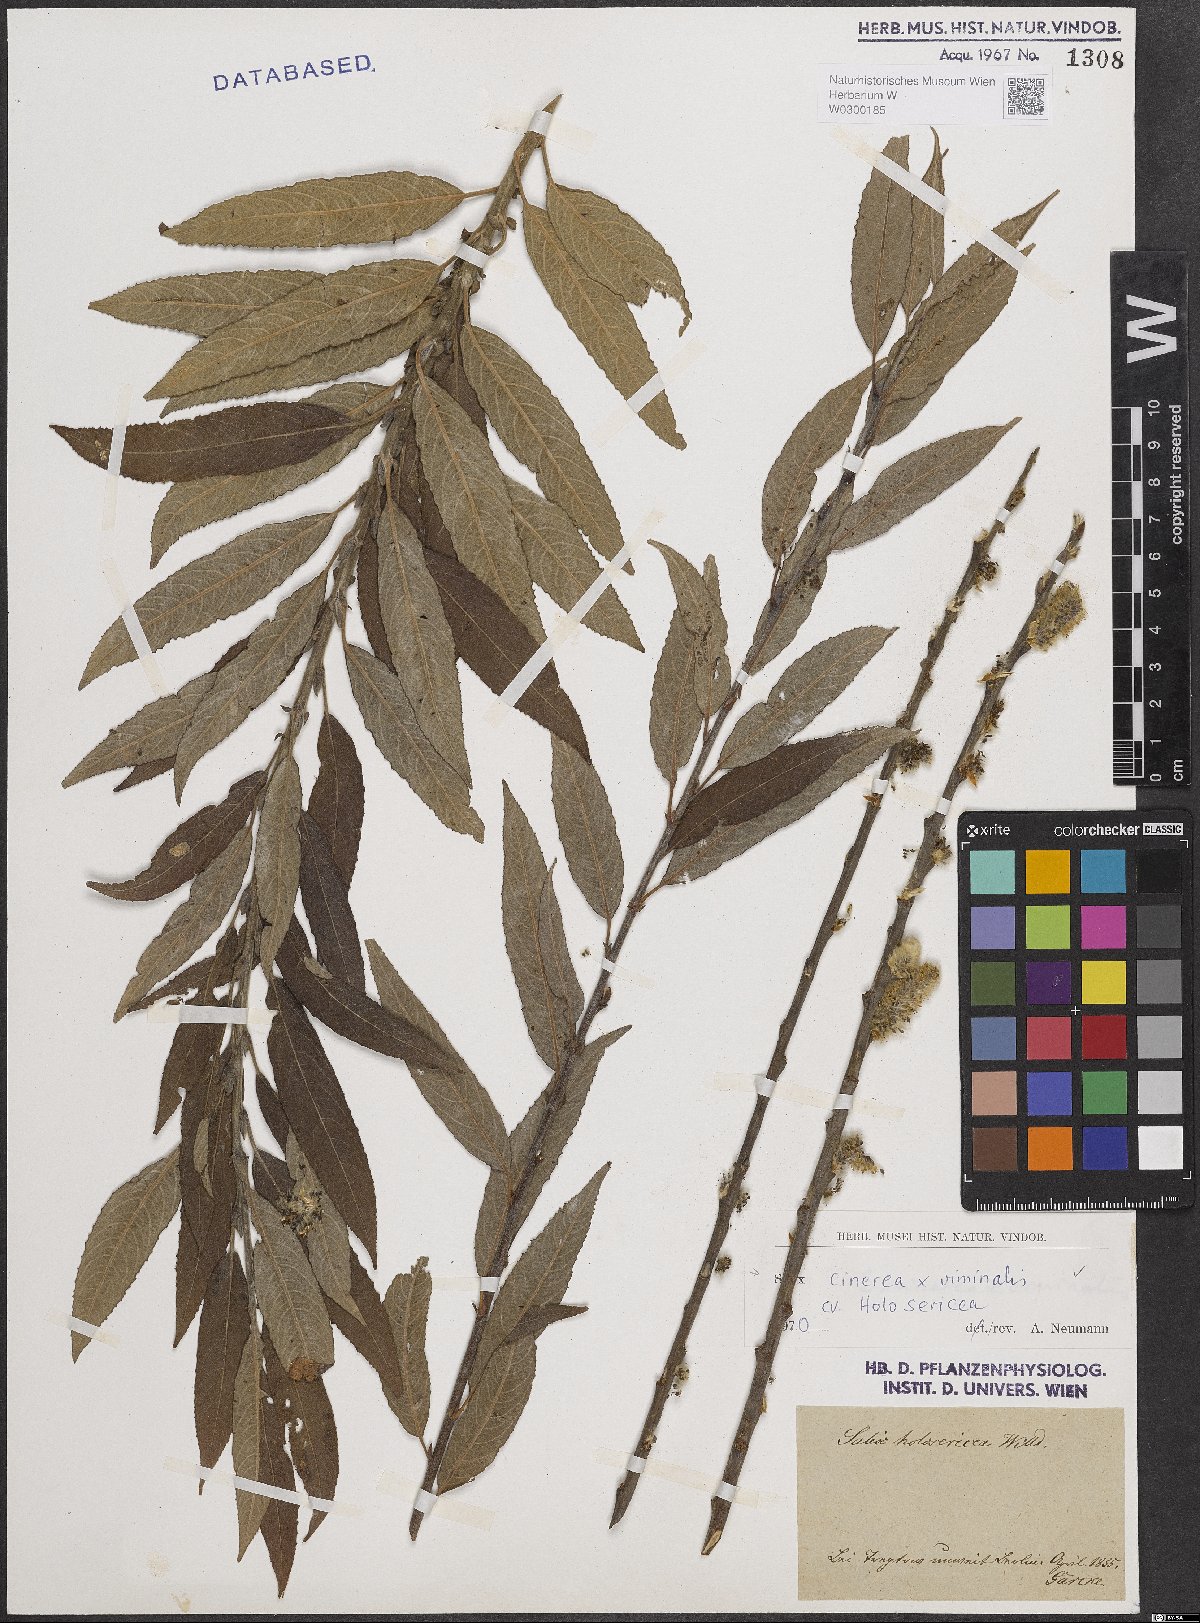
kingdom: Plantae
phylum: Tracheophyta
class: Magnoliopsida
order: Malpighiales
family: Salicaceae
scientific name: Salicaceae
